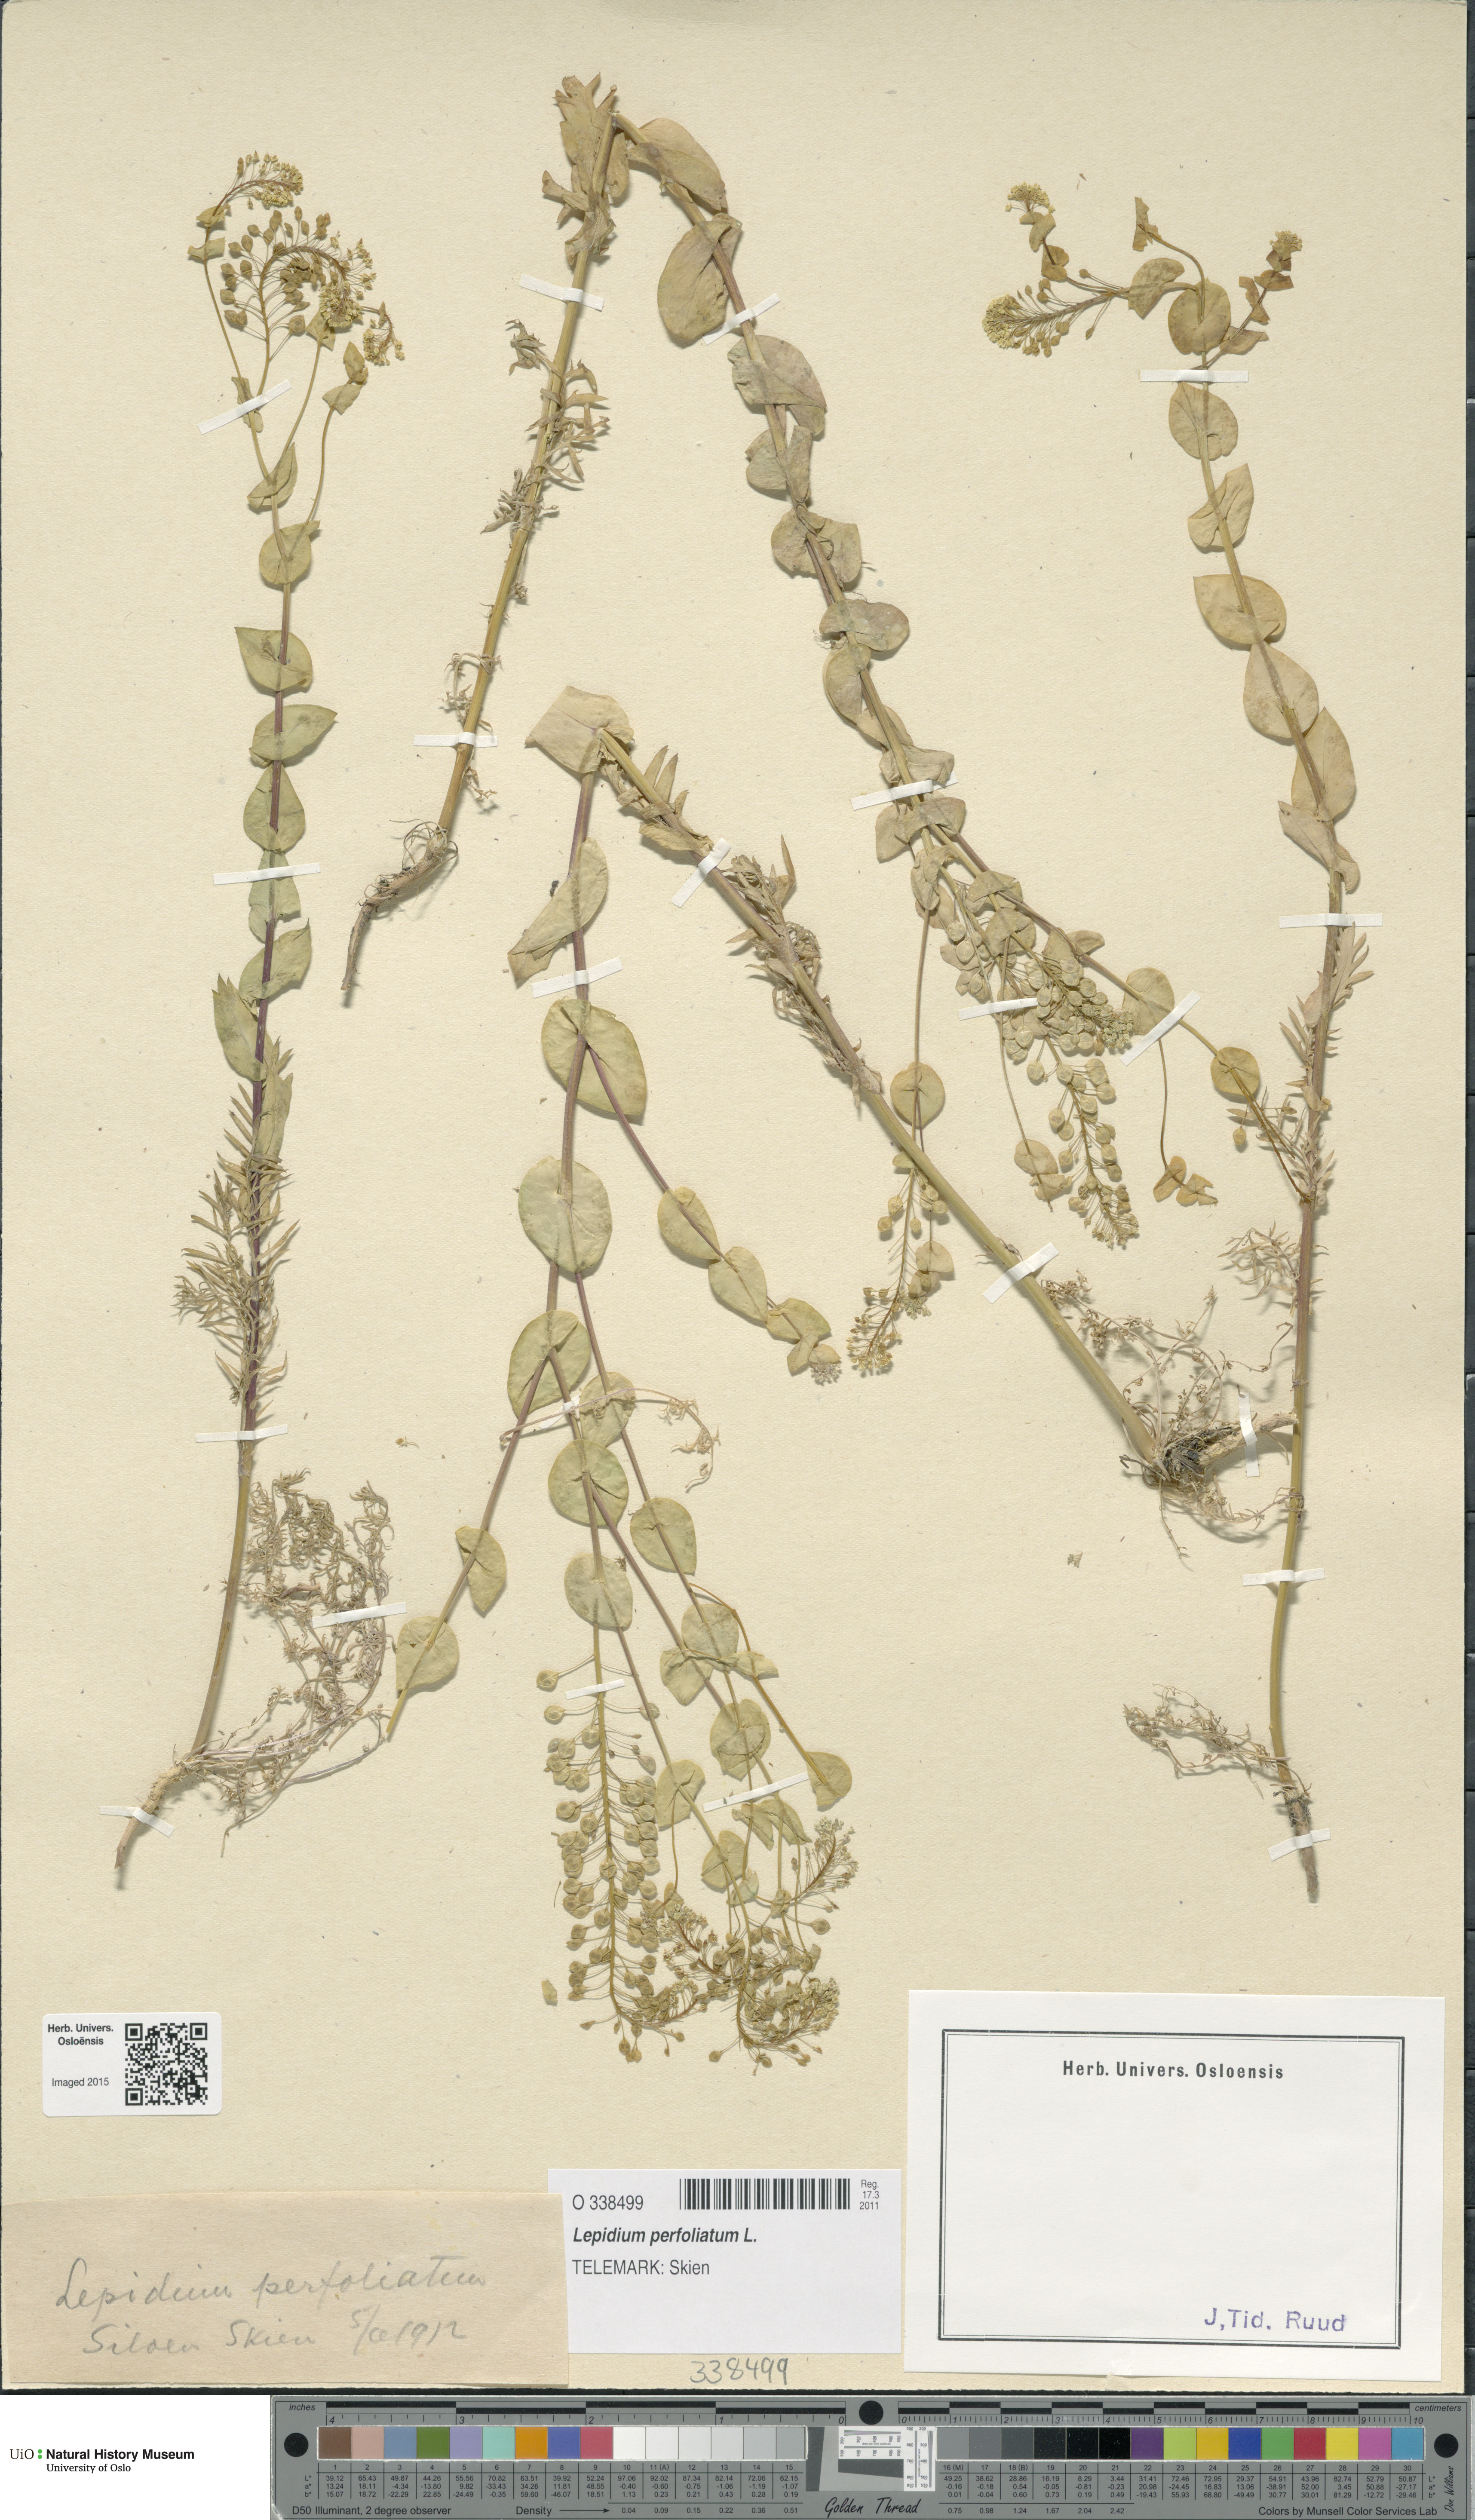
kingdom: Plantae
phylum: Tracheophyta
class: Magnoliopsida
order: Brassicales
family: Brassicaceae
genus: Lepidium
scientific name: Lepidium perfoliatum
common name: Perfoliate pepperwort
